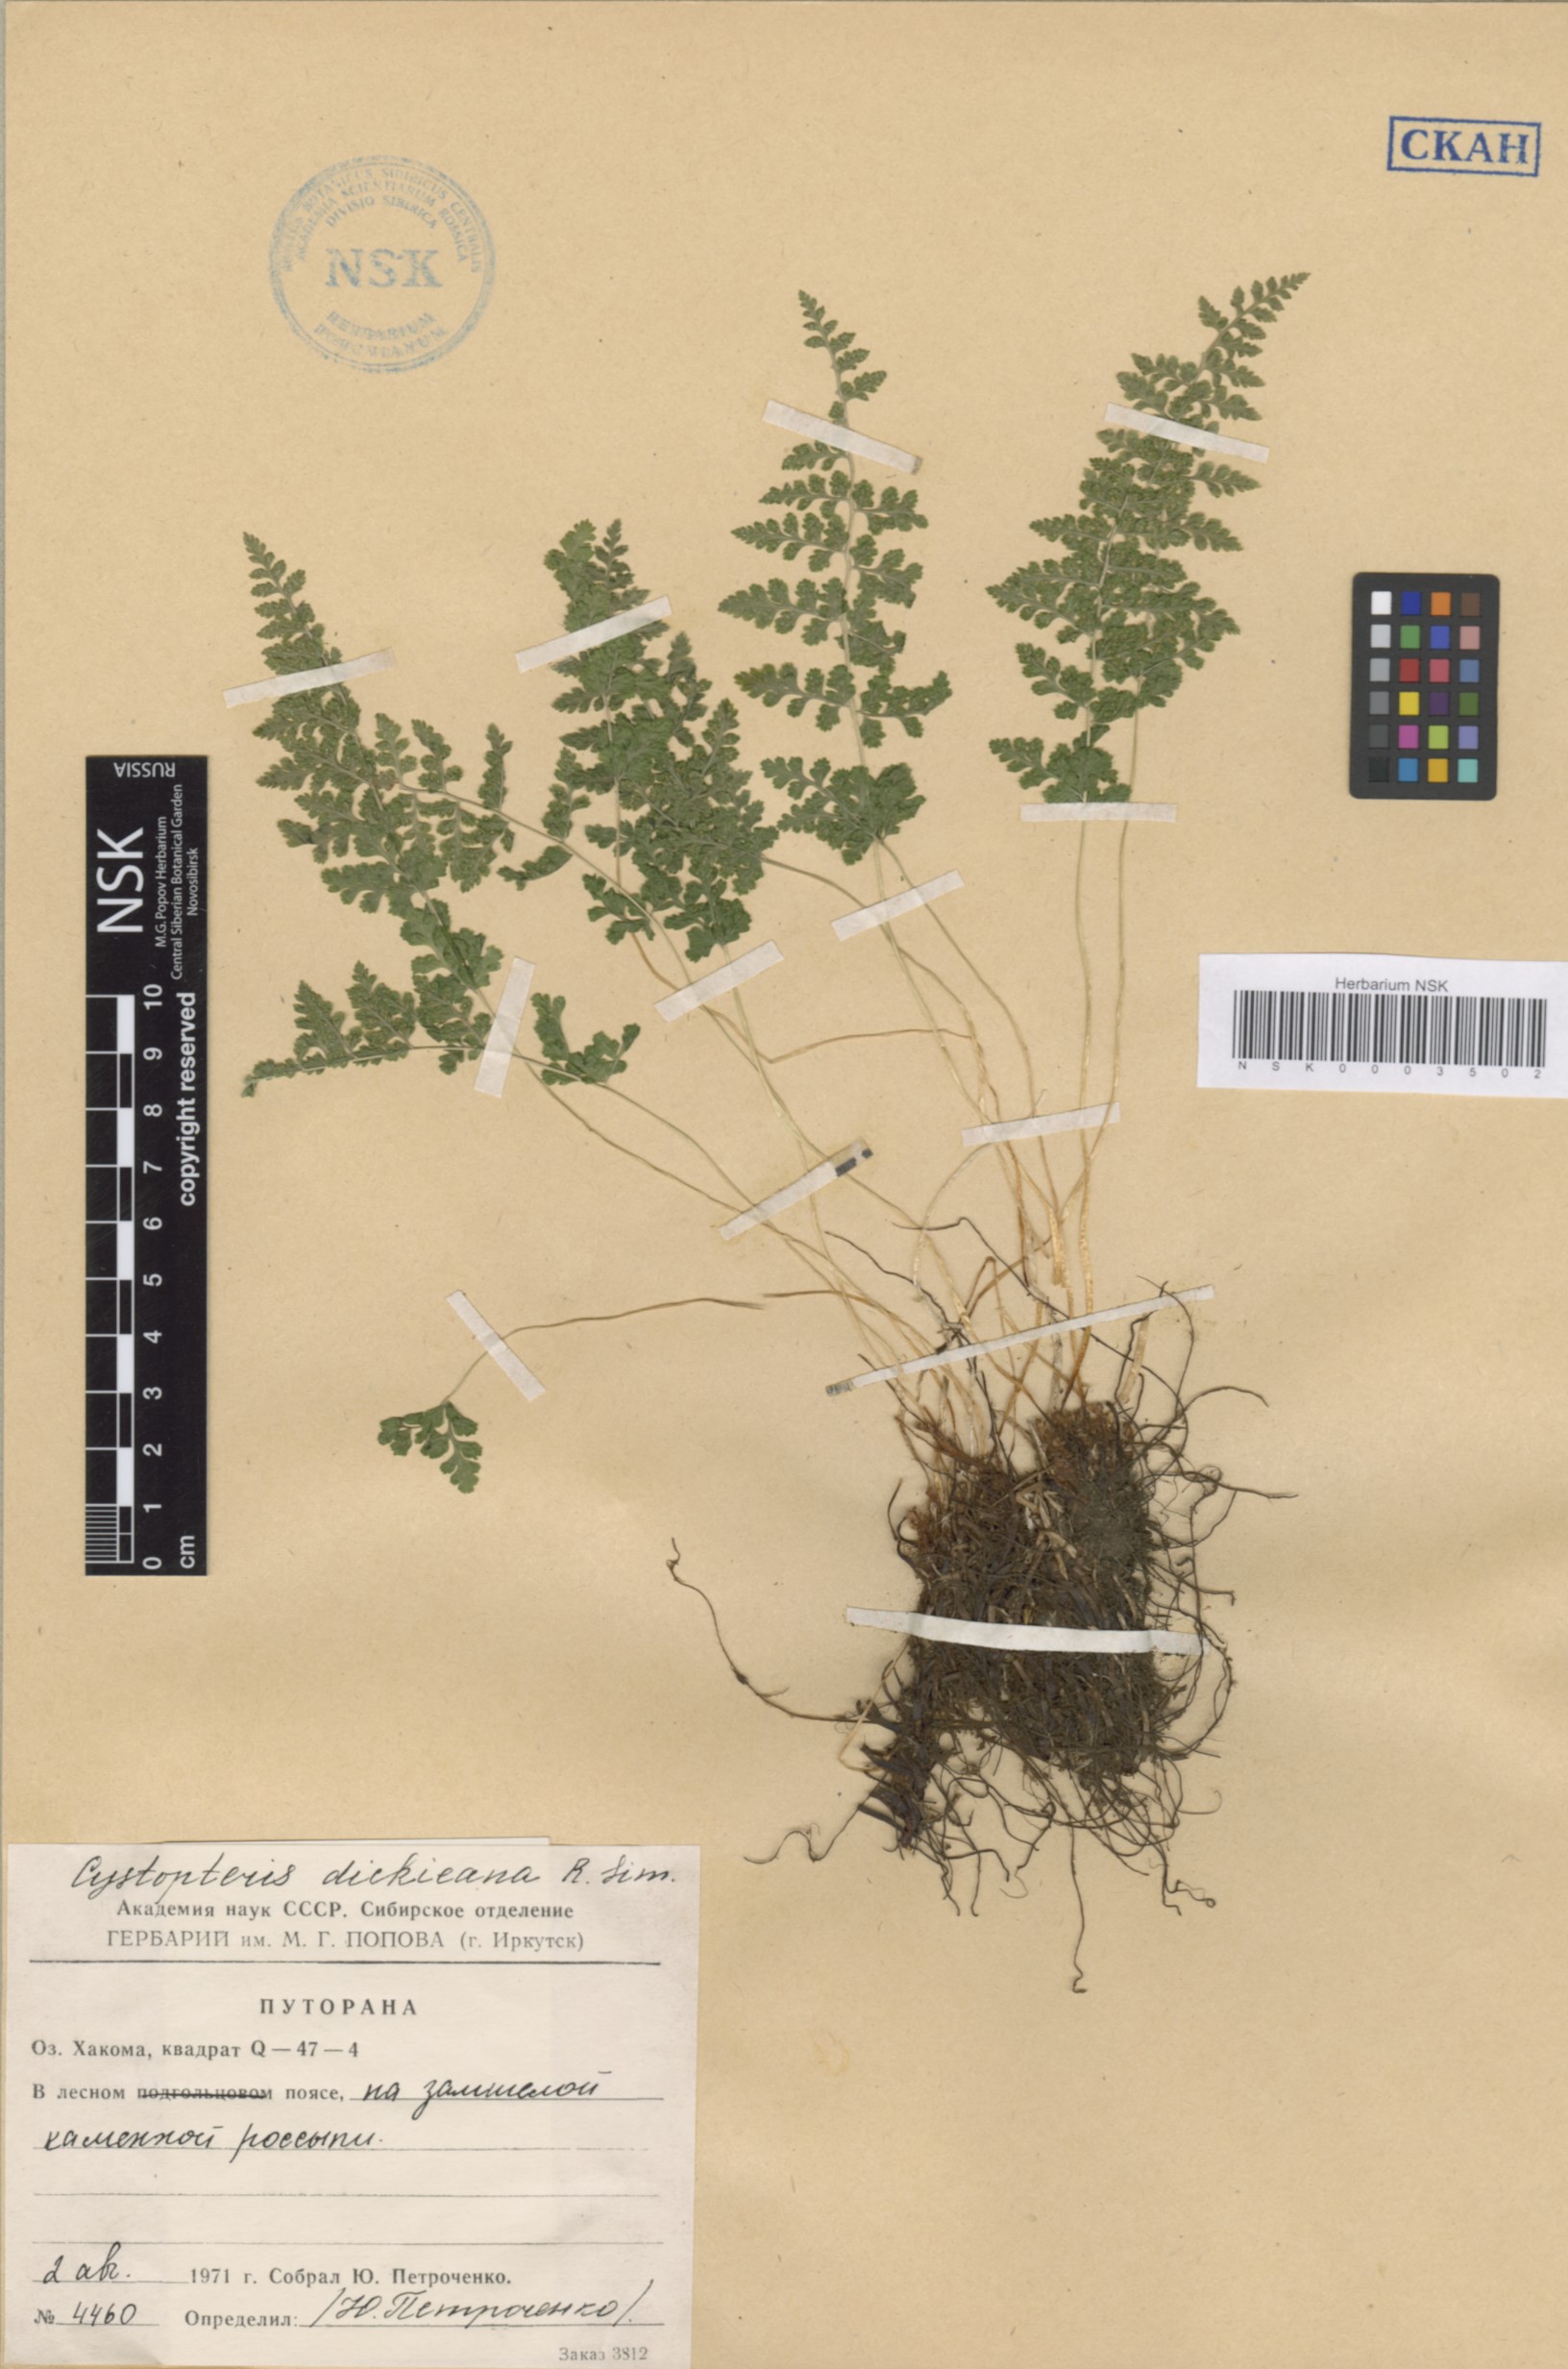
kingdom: Plantae
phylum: Tracheophyta
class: Polypodiopsida
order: Polypodiales
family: Cystopteridaceae
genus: Cystopteris
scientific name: Cystopteris dickieana
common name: Dickie's bladder-fern
